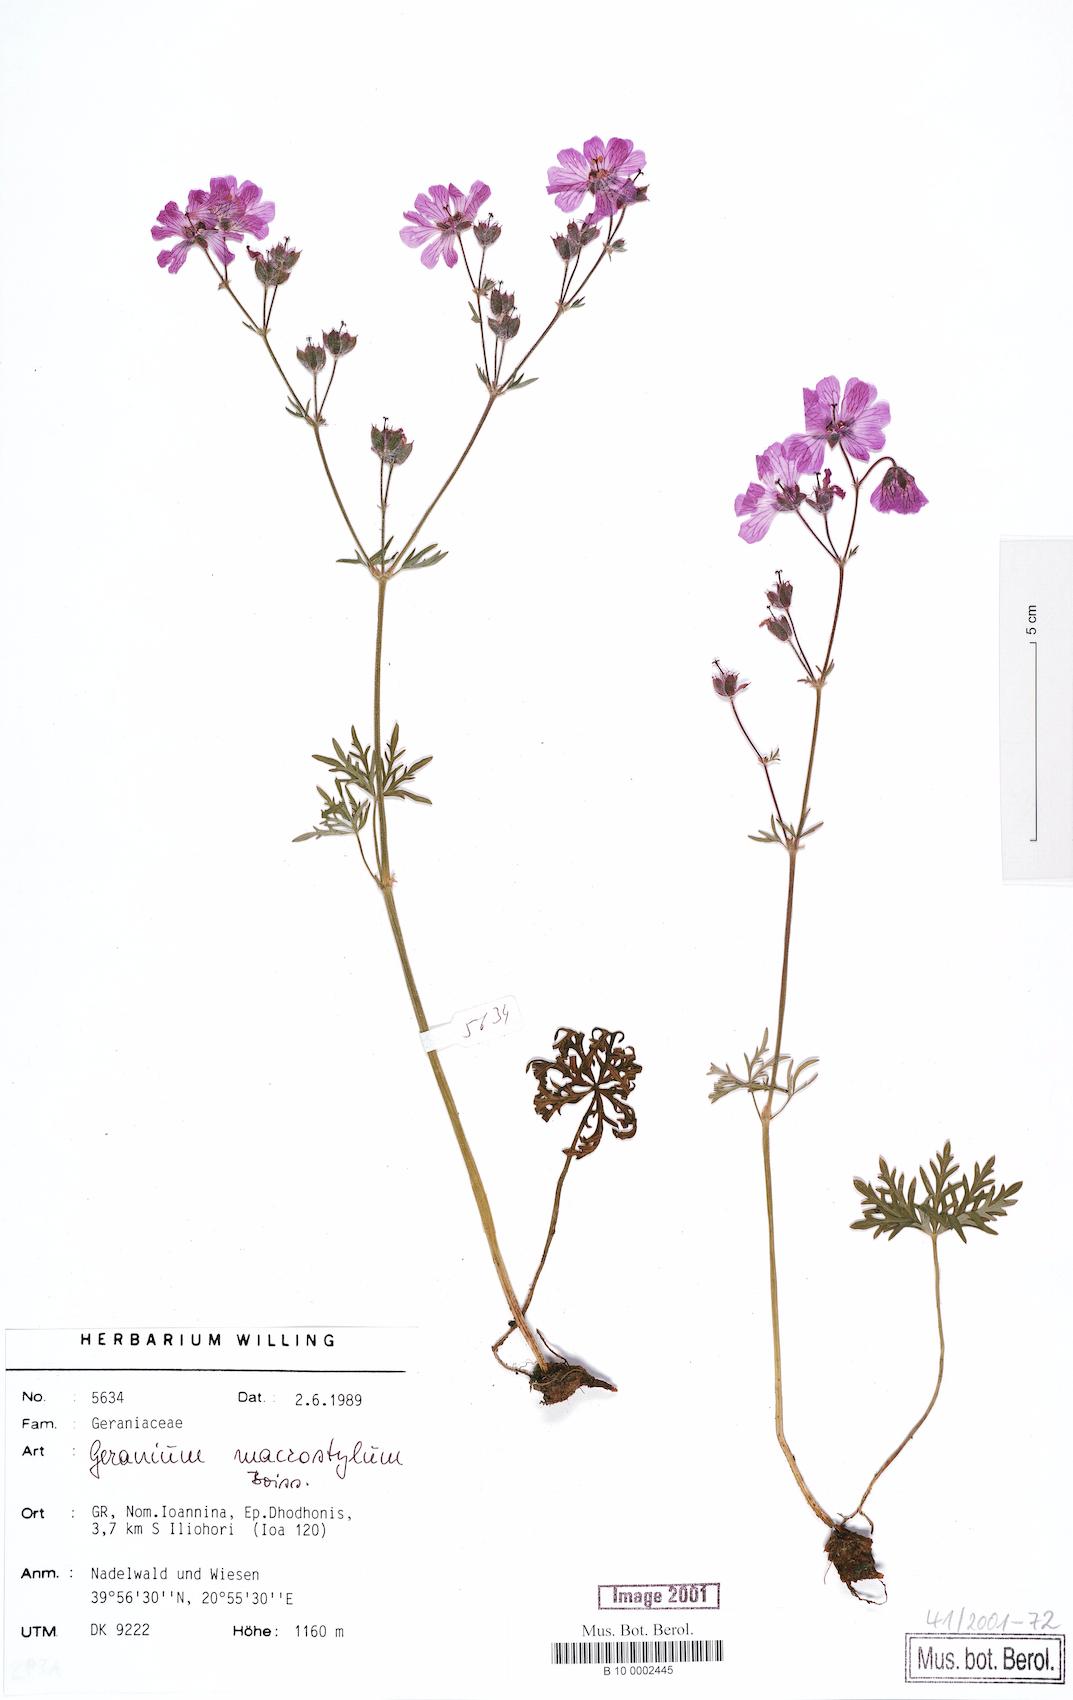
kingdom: Plantae
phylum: Tracheophyta
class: Magnoliopsida
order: Geraniales
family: Geraniaceae
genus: Geranium
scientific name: Geranium macrostylum
